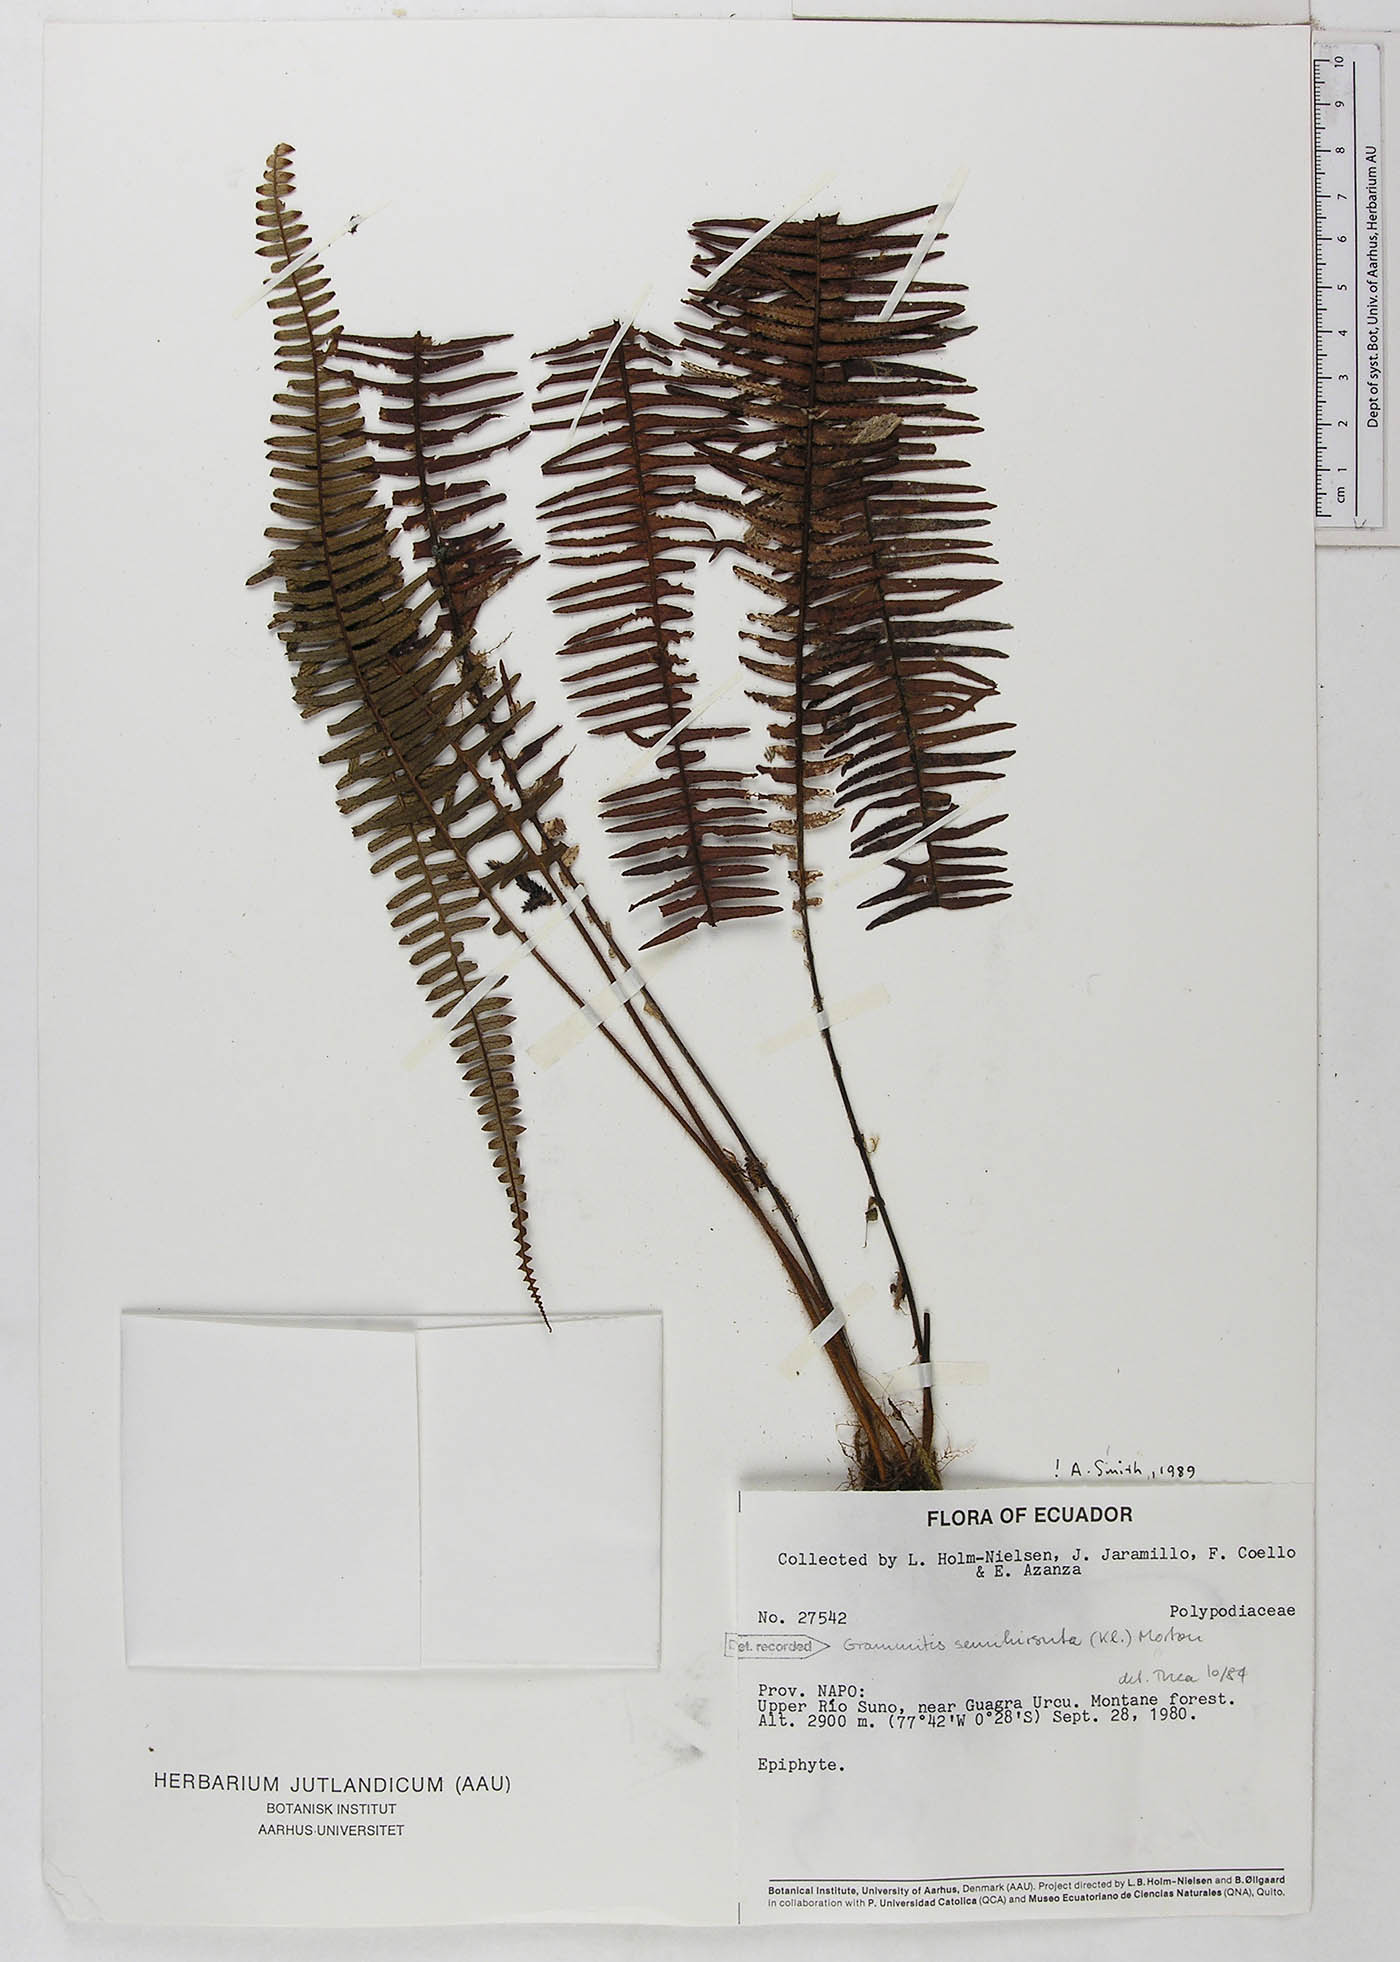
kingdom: Plantae
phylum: Tracheophyta
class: Polypodiopsida
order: Polypodiales
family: Polypodiaceae
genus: Mycopteris
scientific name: Mycopteris semihirsuta
